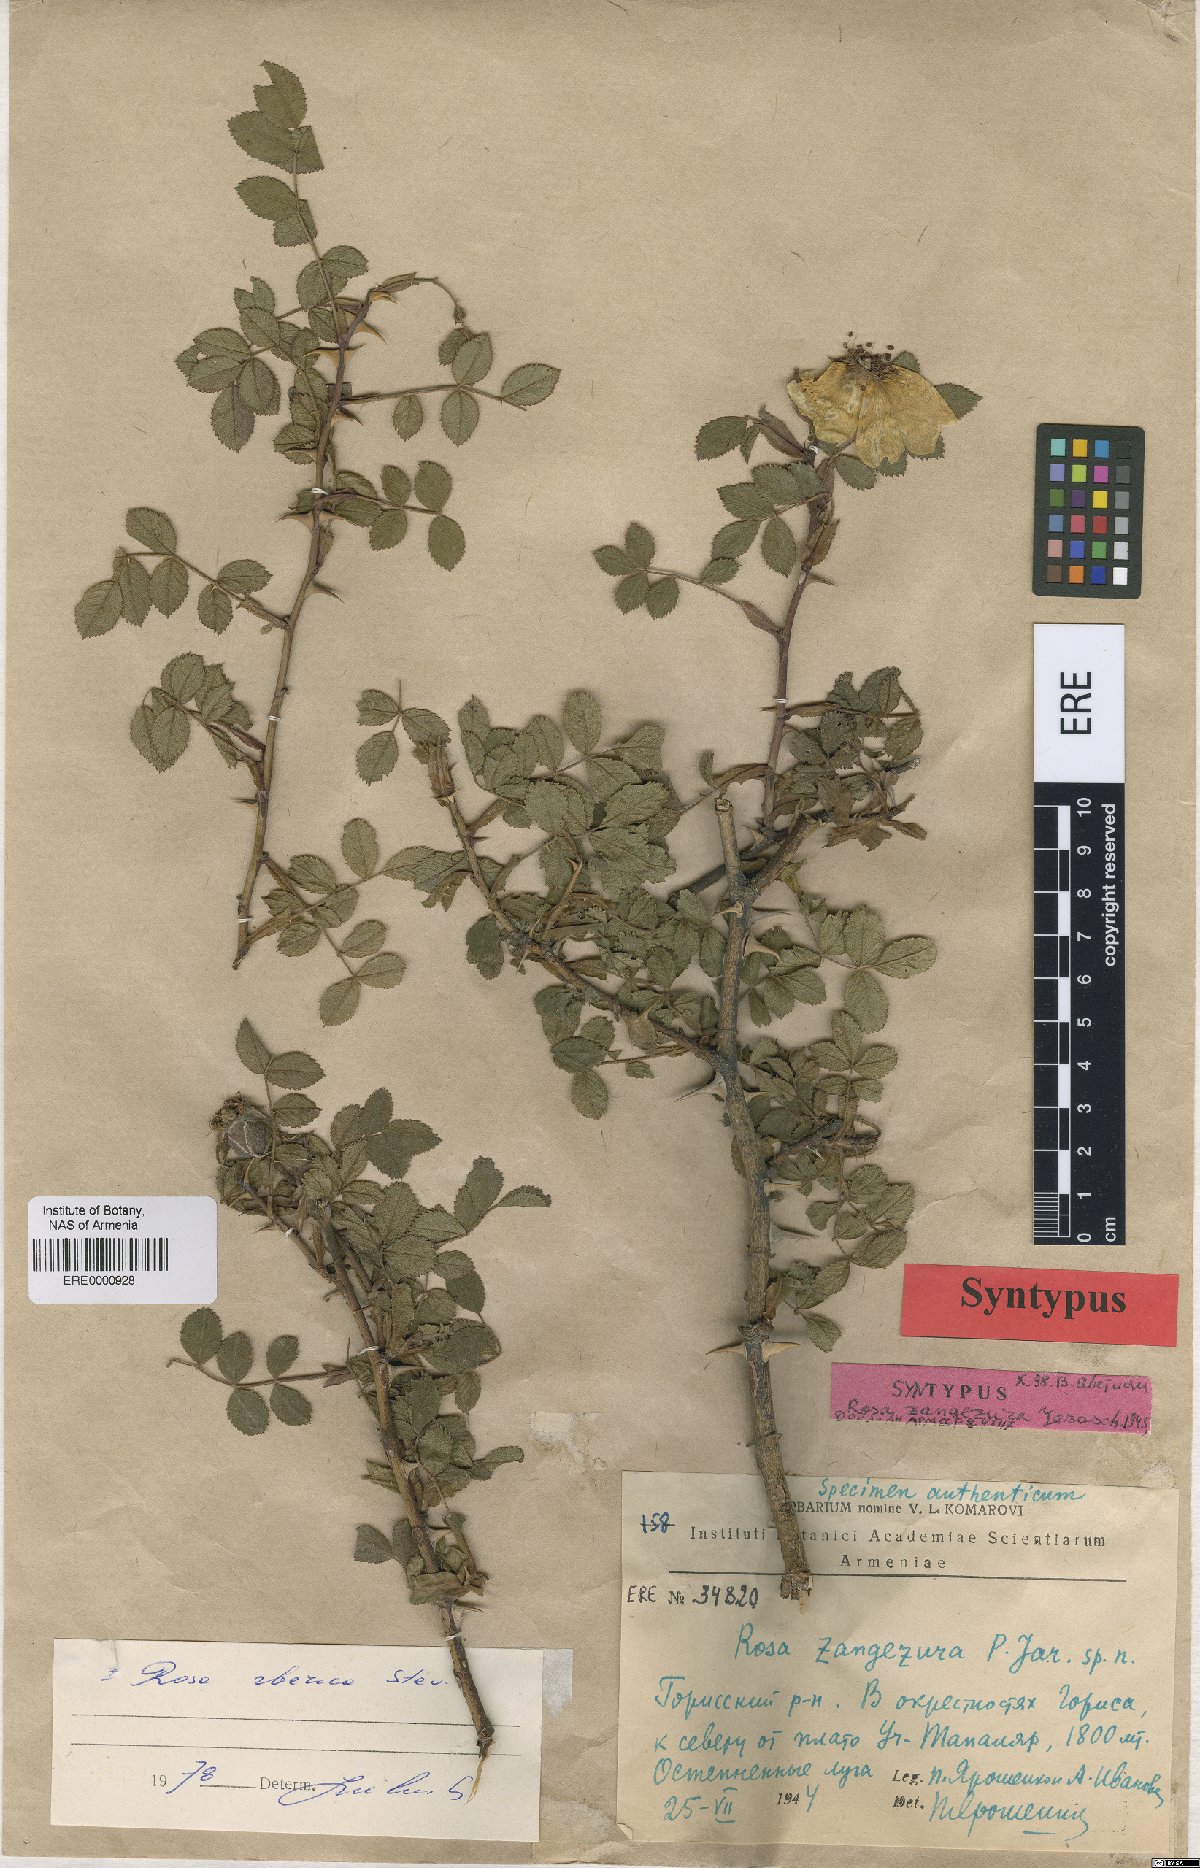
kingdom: Plantae
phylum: Tracheophyta
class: Magnoliopsida
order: Rosales
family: Rosaceae
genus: Rosa
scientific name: Rosa zangezura
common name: Zangezurian rose
